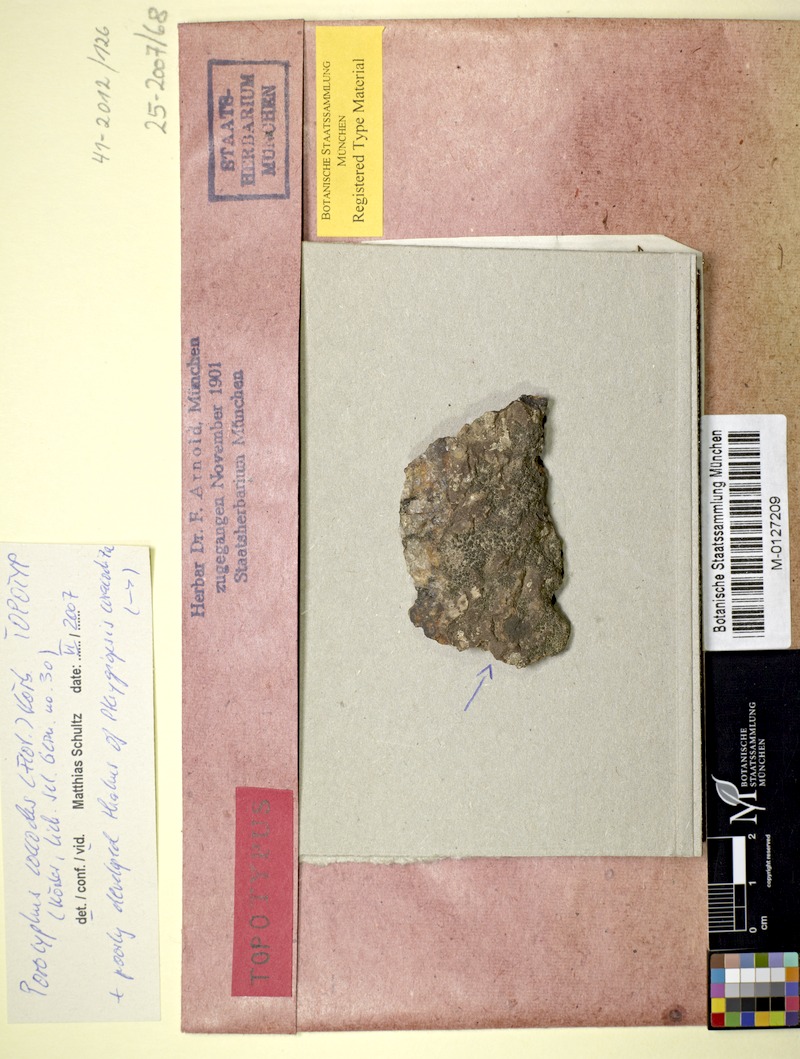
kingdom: Fungi
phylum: Ascomycota
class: Lichinomycetes
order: Lichinales
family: Lichinaceae
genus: Porocyphus
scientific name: Porocyphus coccodes
